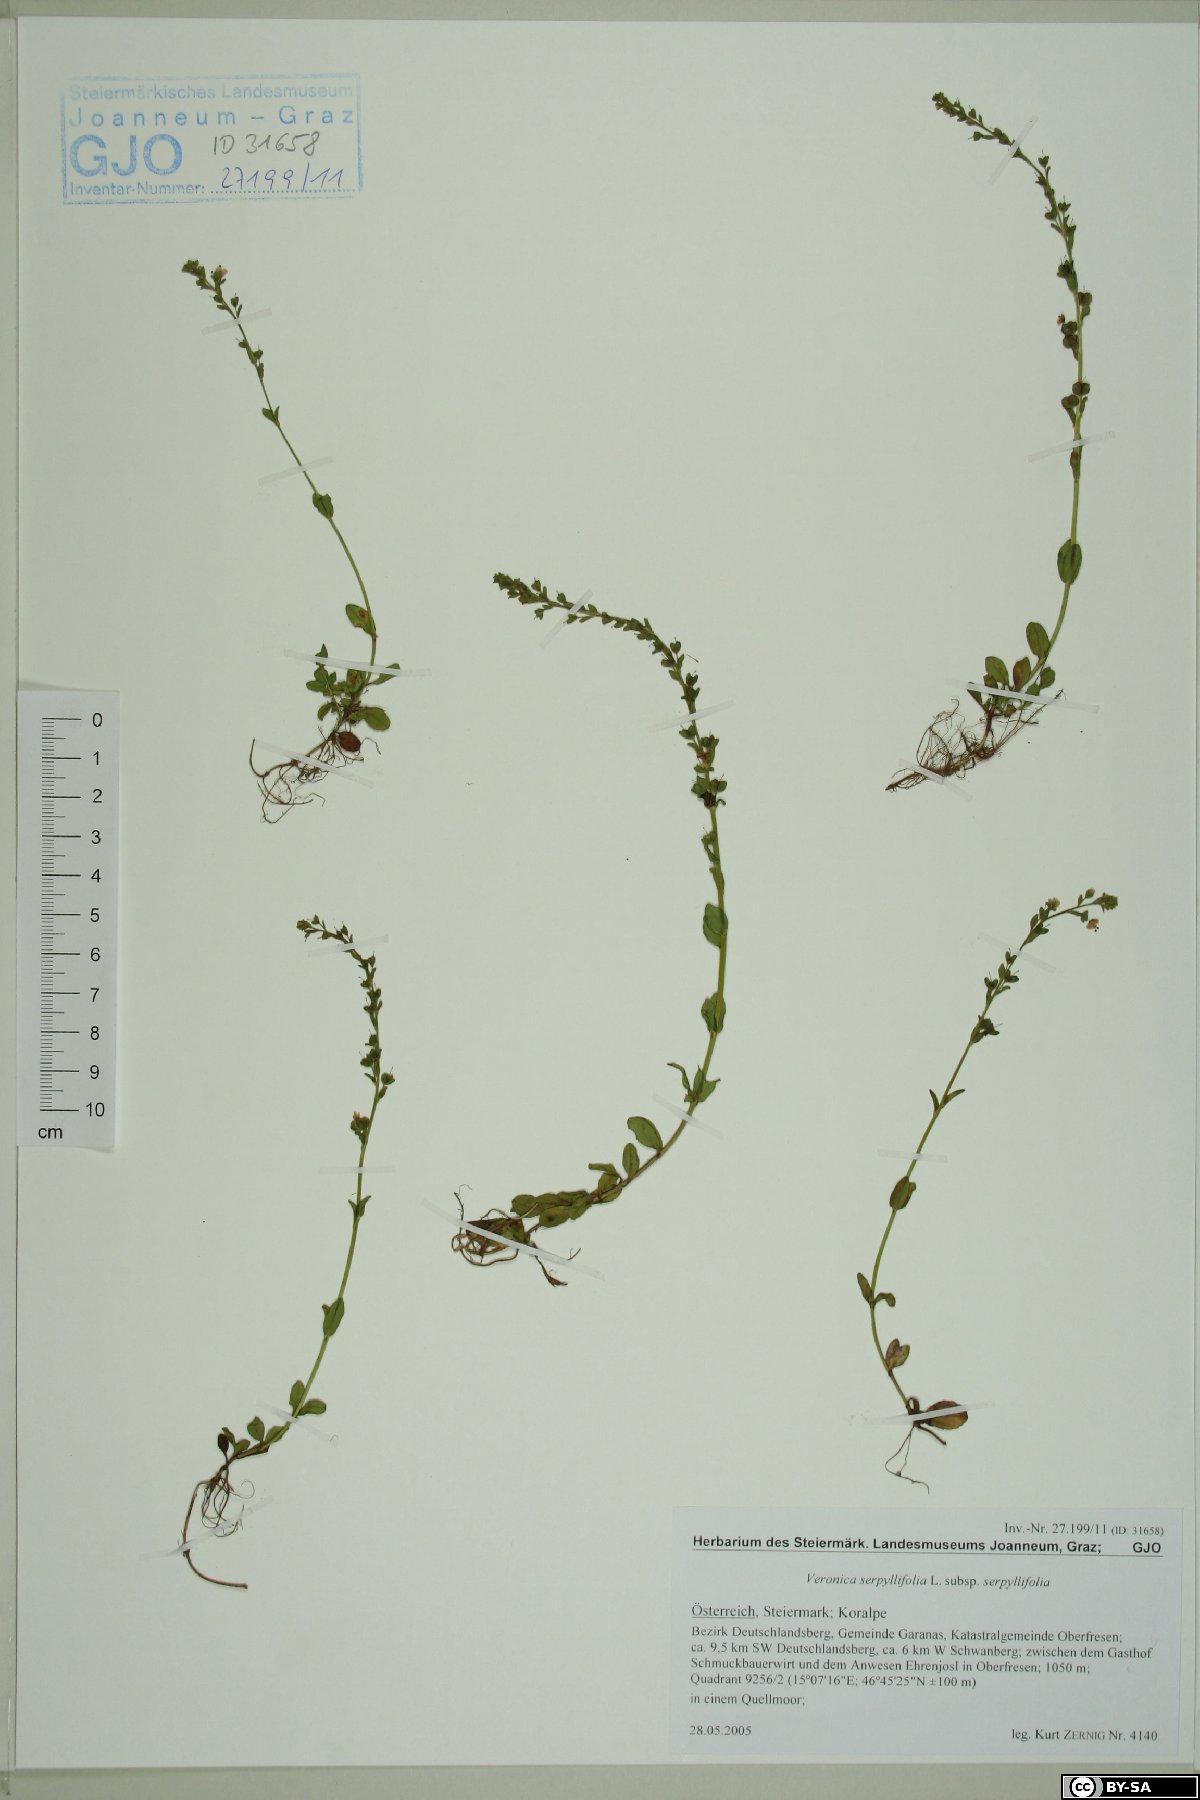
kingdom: Plantae
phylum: Tracheophyta
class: Magnoliopsida
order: Lamiales
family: Plantaginaceae
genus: Veronica
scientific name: Veronica serpyllifolia
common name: Thyme-leaved speedwell
